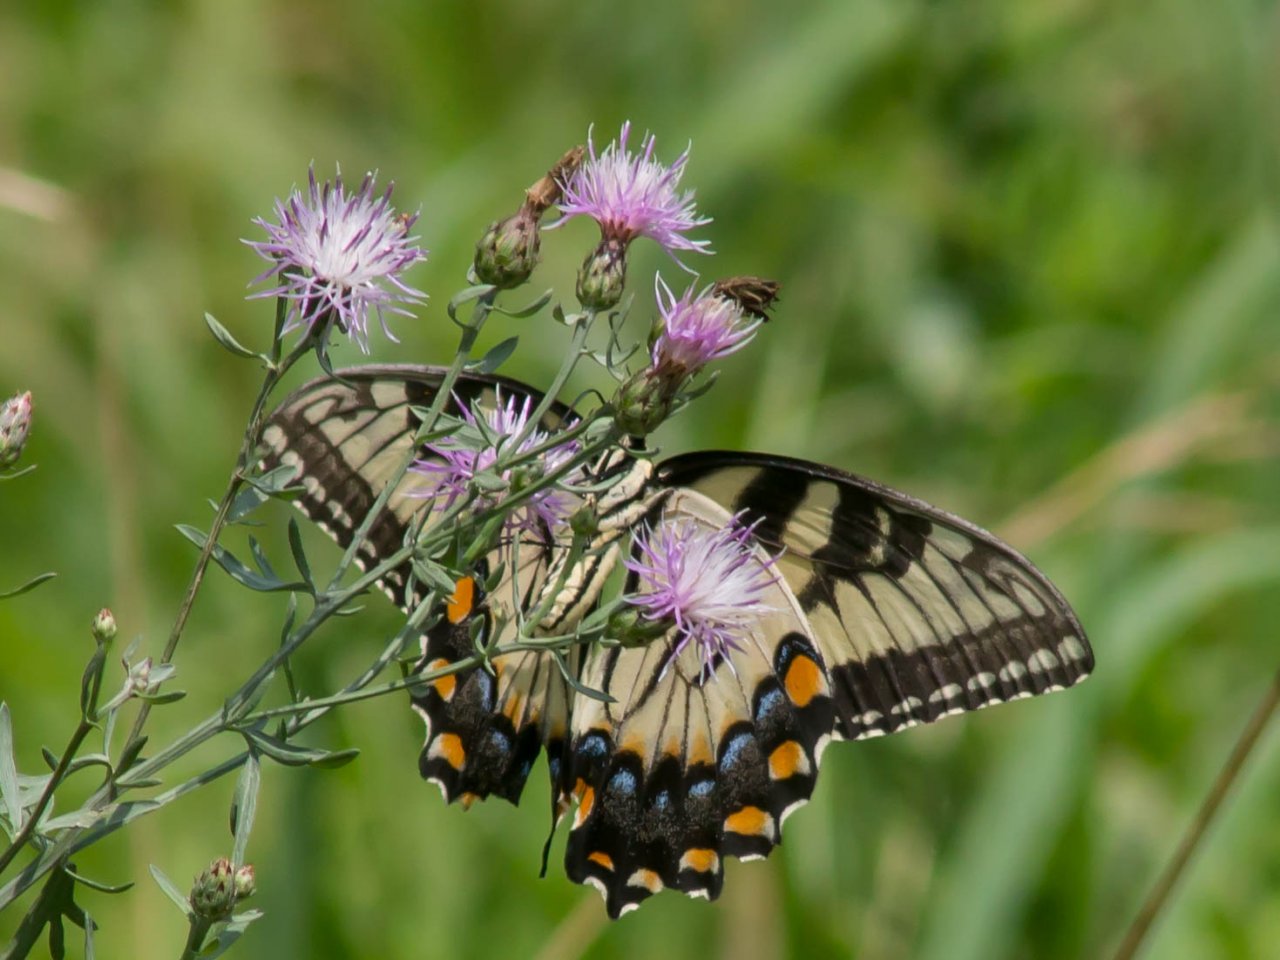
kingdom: Animalia
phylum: Arthropoda
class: Insecta
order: Lepidoptera
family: Papilionidae
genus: Pterourus
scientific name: Pterourus glaucus
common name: Eastern Tiger Swallowtail
